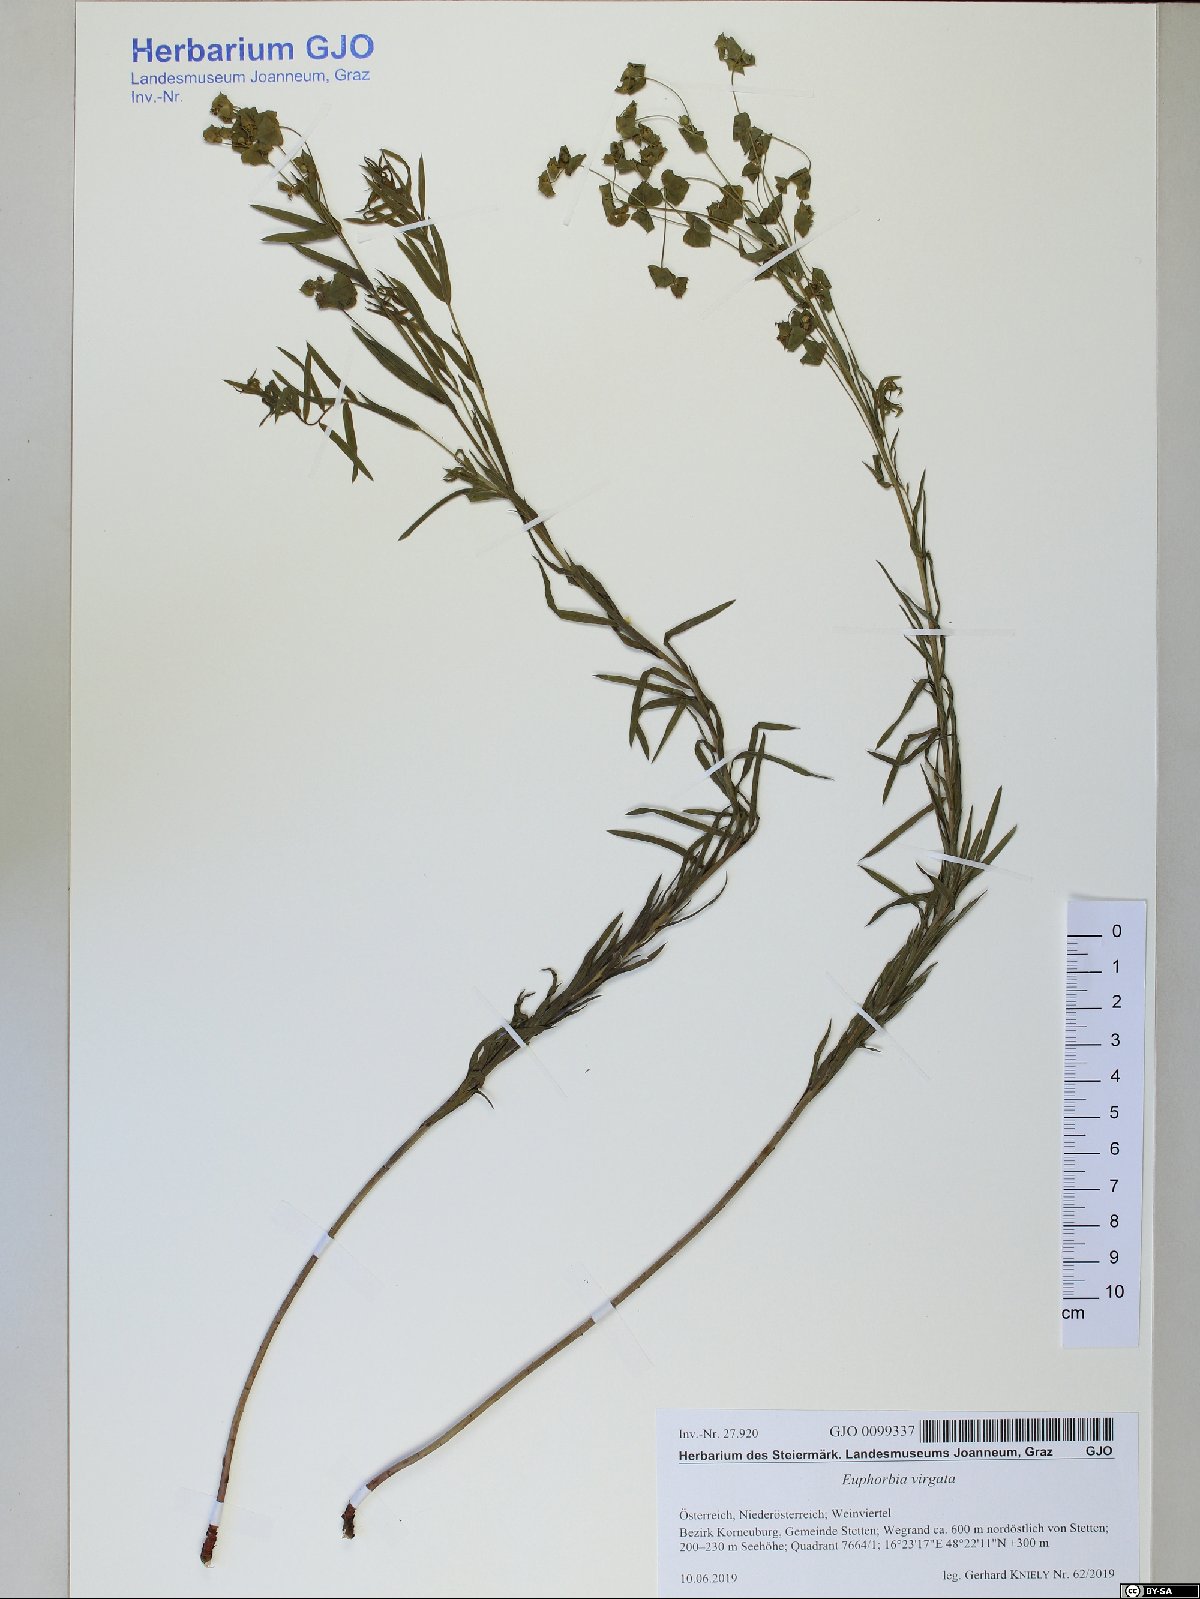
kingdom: Plantae
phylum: Tracheophyta
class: Magnoliopsida
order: Malpighiales
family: Euphorbiaceae
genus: Euphorbia
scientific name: Euphorbia virgata
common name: Leafy spurge
